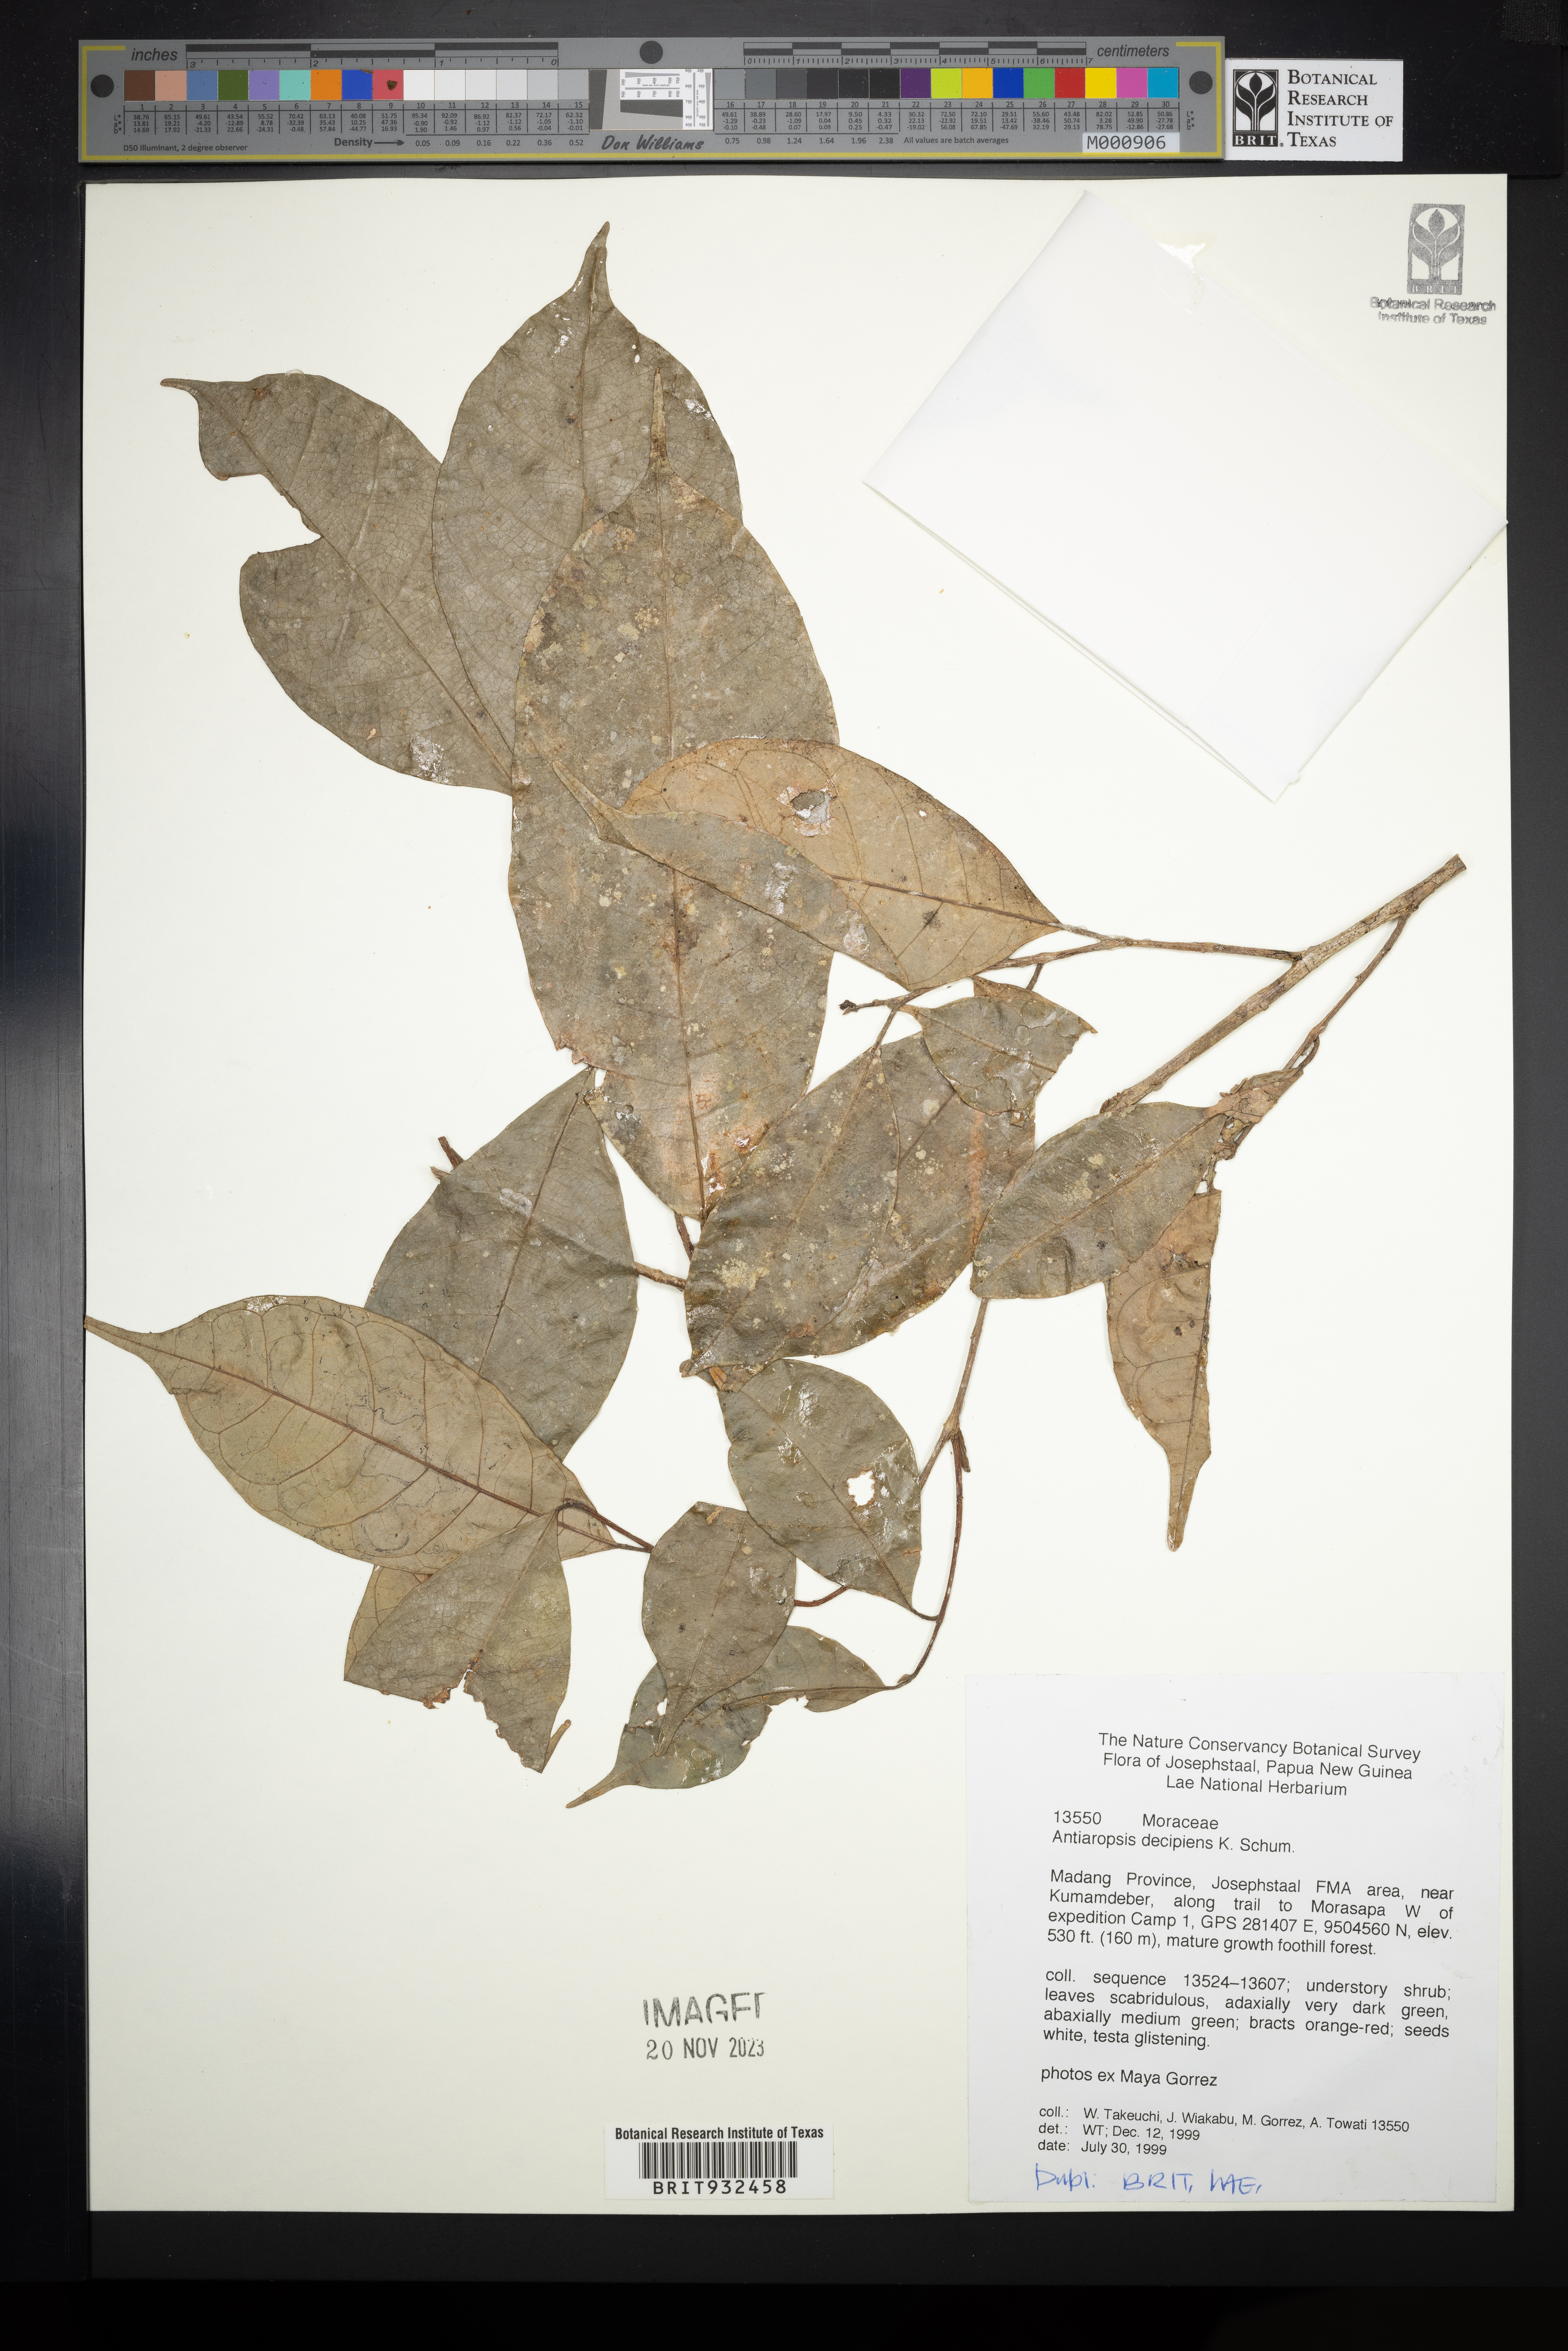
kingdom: Plantae
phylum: Tracheophyta
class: Magnoliopsida
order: Rosales
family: Moraceae
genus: Antiaropsis
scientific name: Antiaropsis
